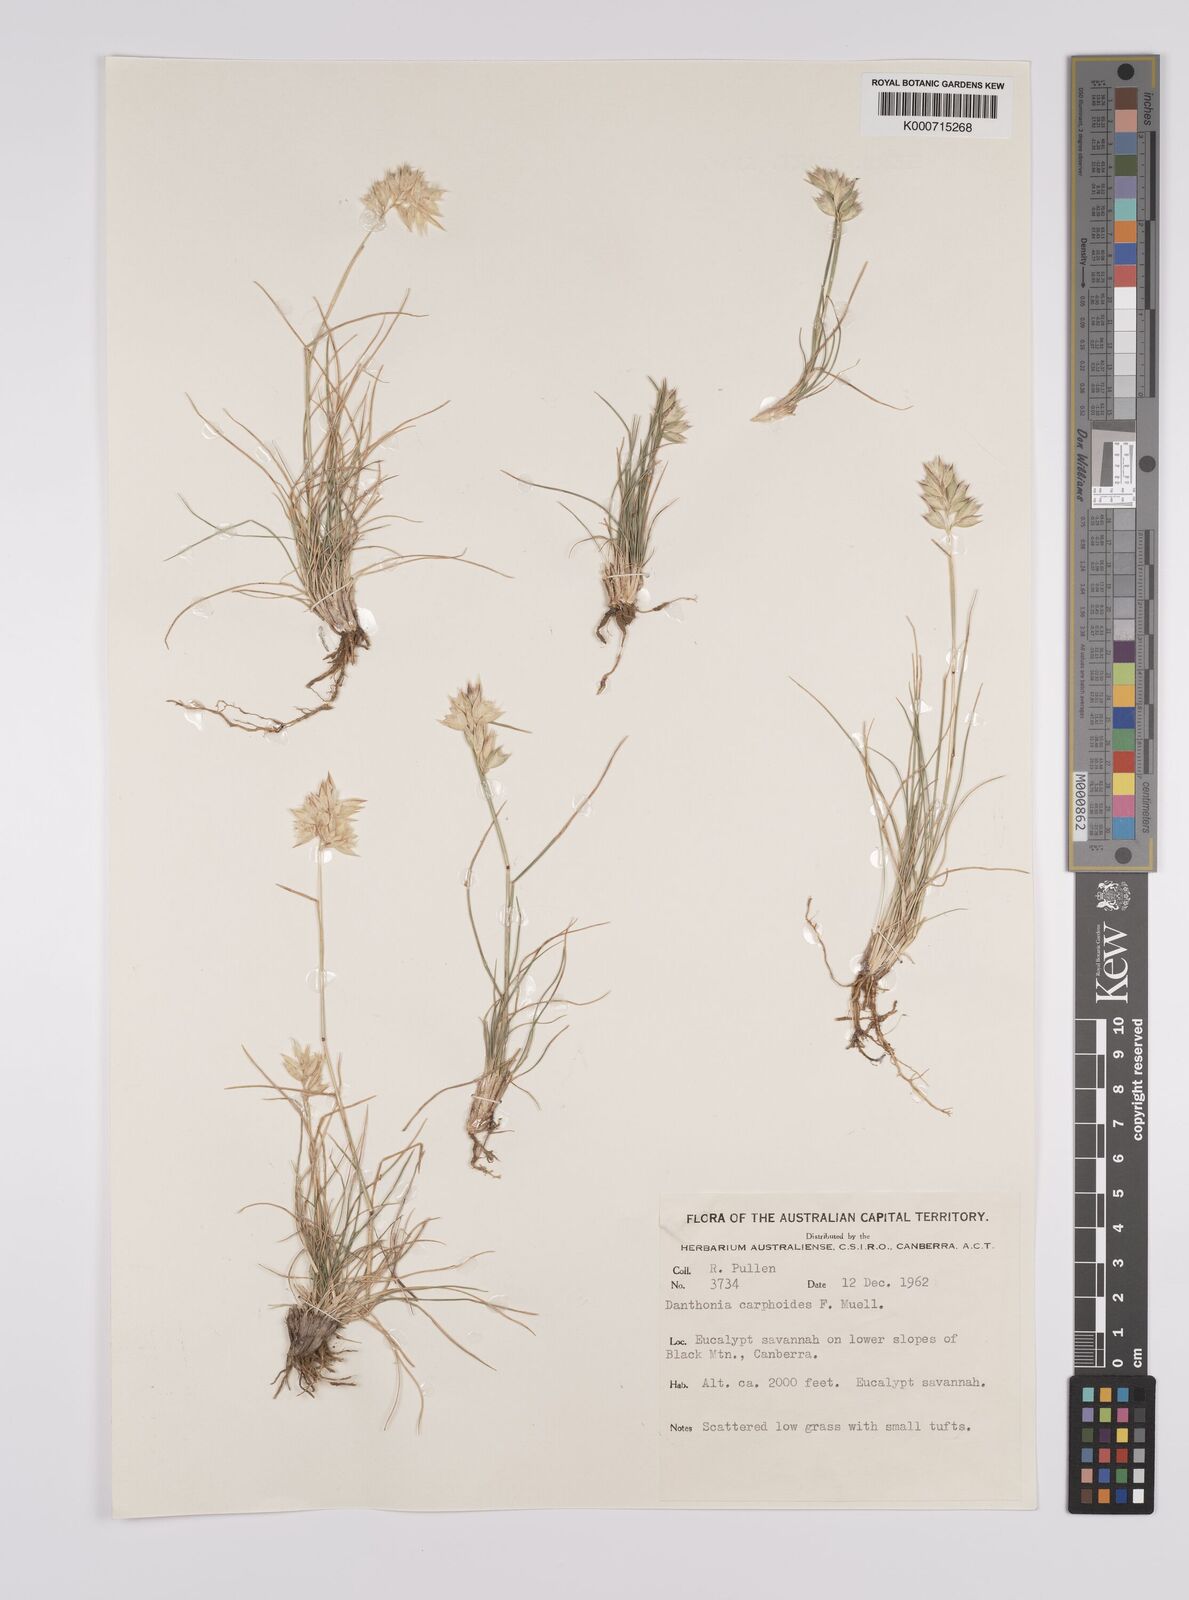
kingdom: Plantae
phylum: Tracheophyta
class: Liliopsida
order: Poales
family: Poaceae
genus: Rytidosperma
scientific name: Rytidosperma carphoides
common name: Short wallaby grass
